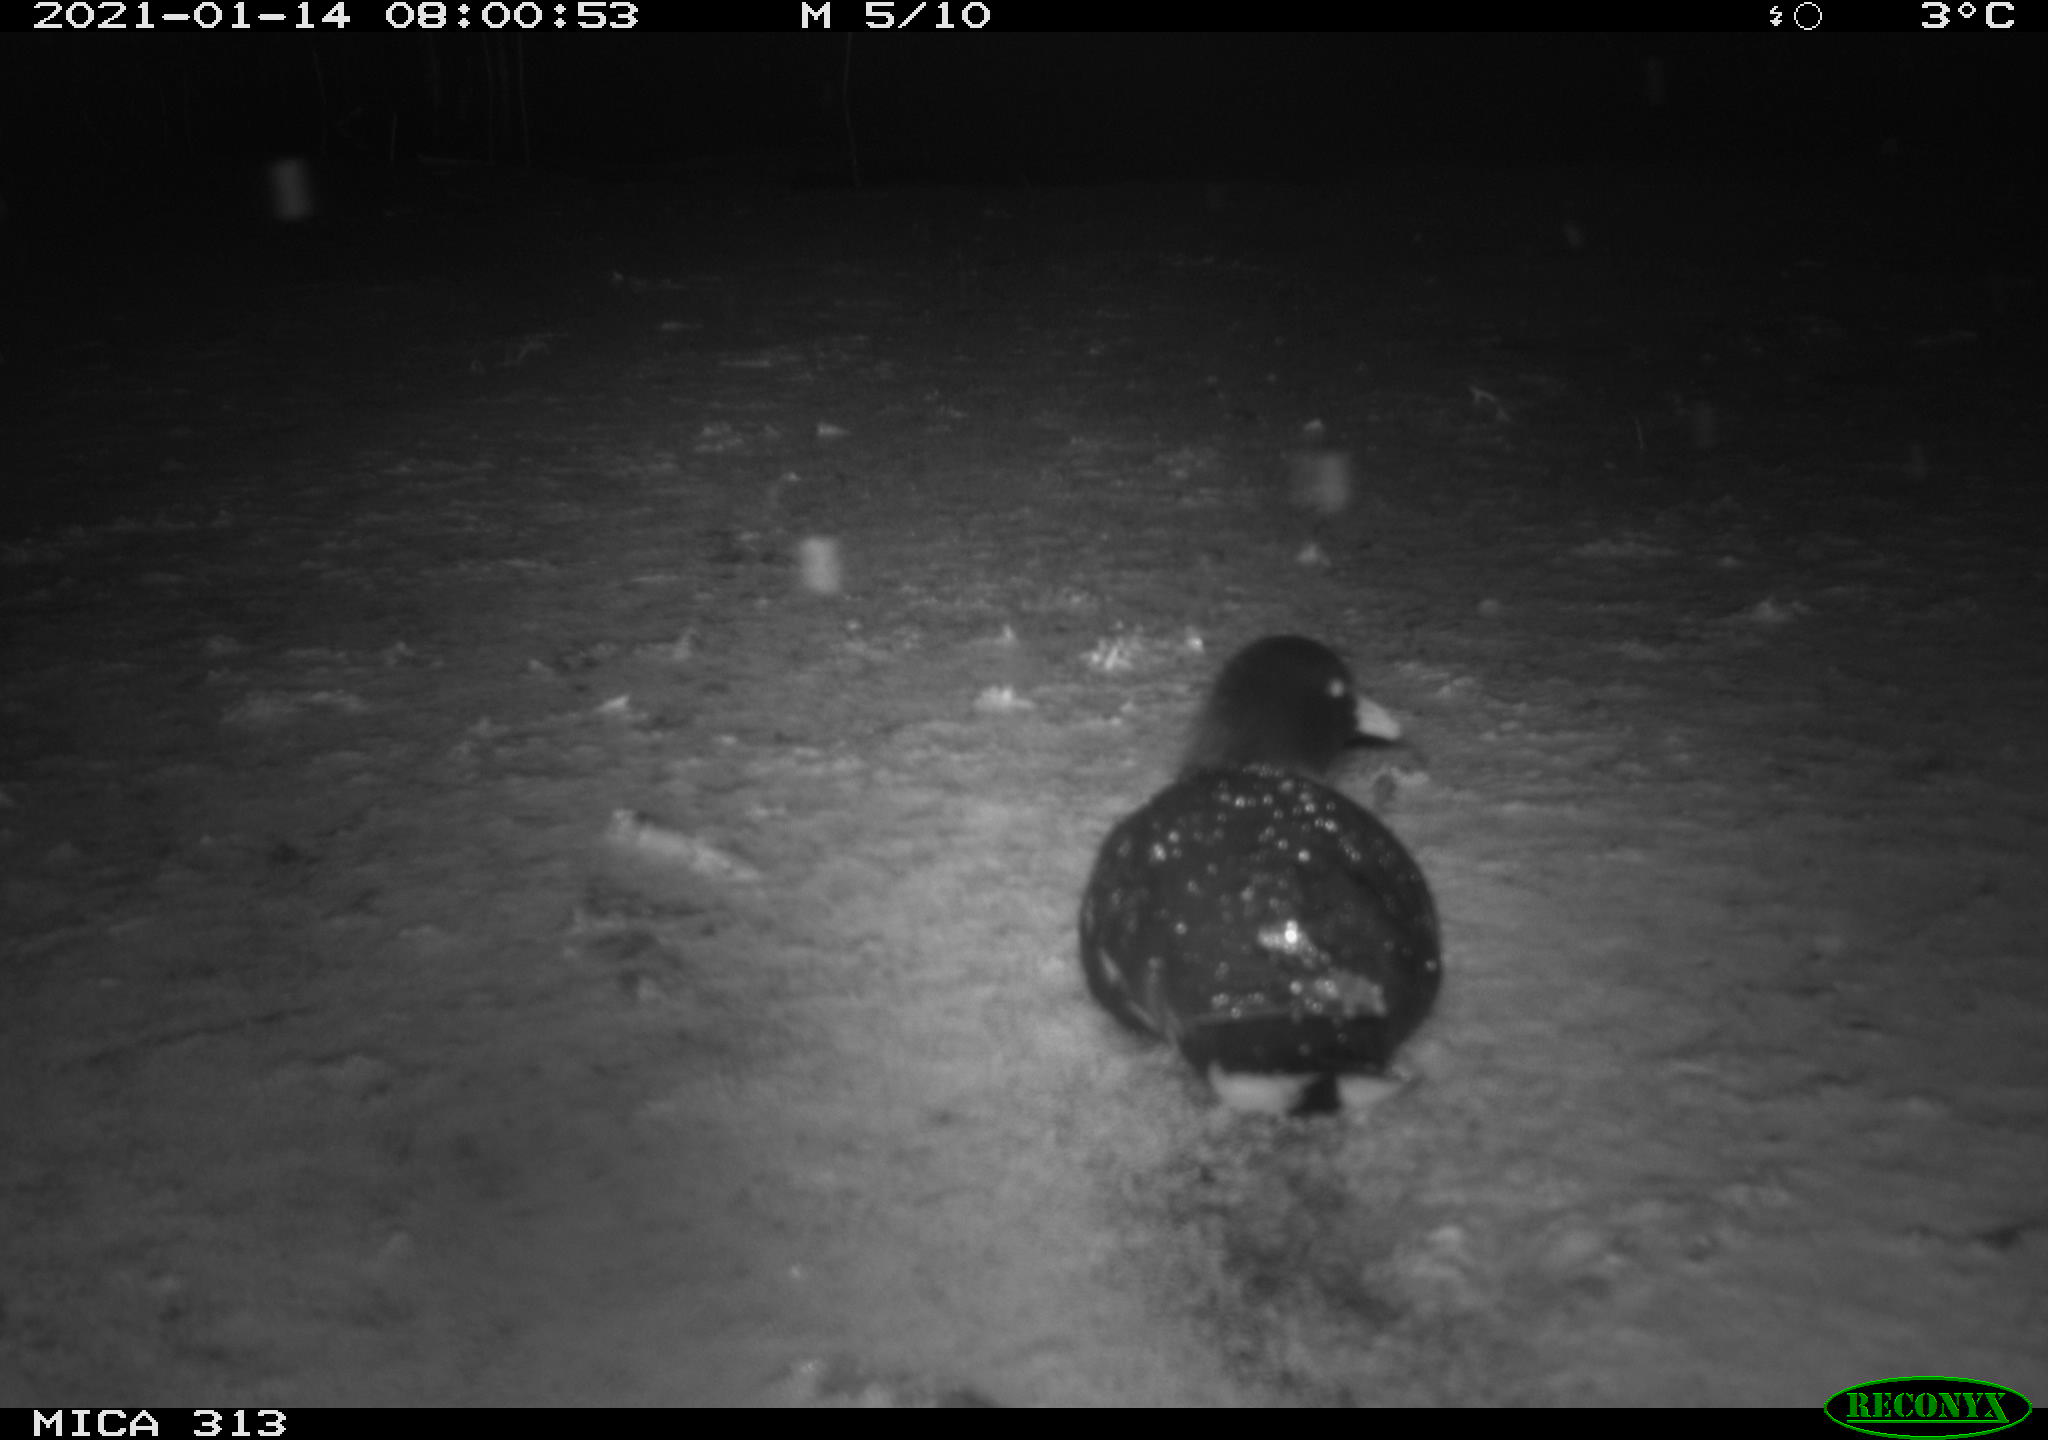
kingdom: Animalia
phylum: Chordata
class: Aves
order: Gruiformes
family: Rallidae
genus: Fulica
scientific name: Fulica atra
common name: Eurasian coot
